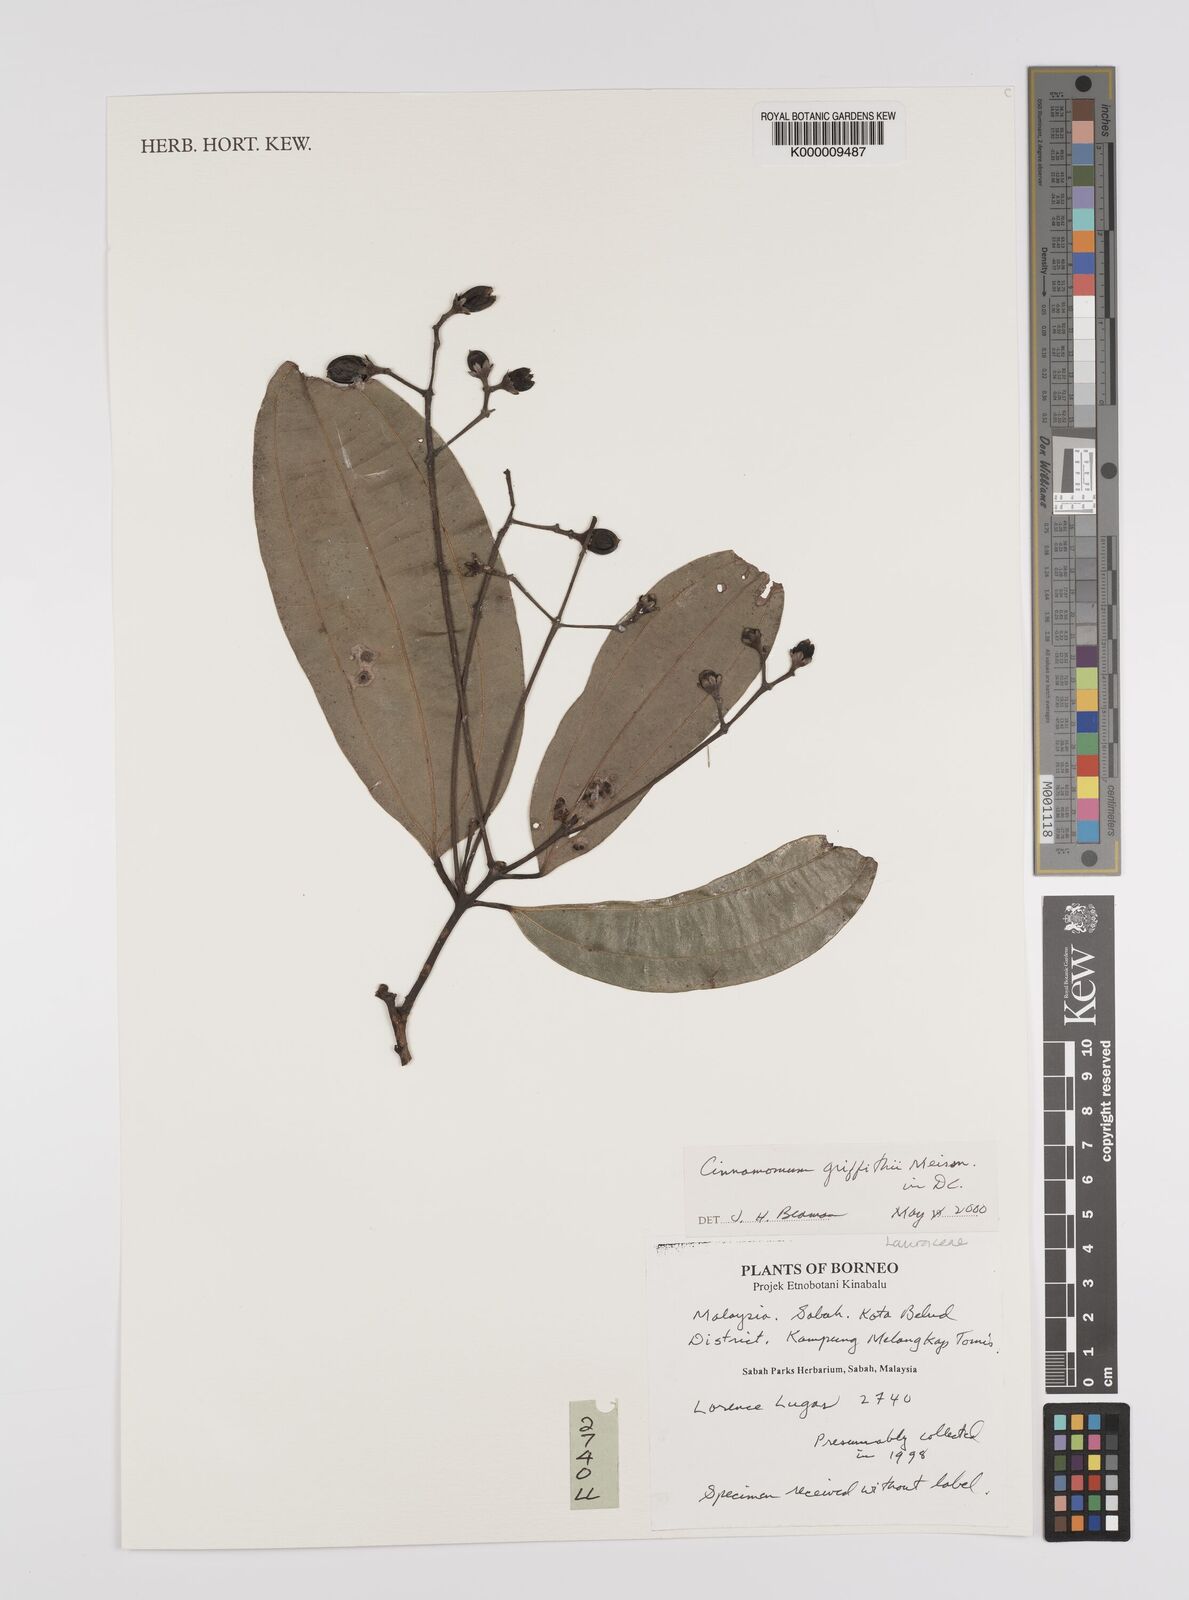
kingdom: Plantae
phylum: Tracheophyta
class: Magnoliopsida
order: Laurales
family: Lauraceae
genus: Cinnamomum
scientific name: Cinnamomum iners
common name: Wild cinnamon
